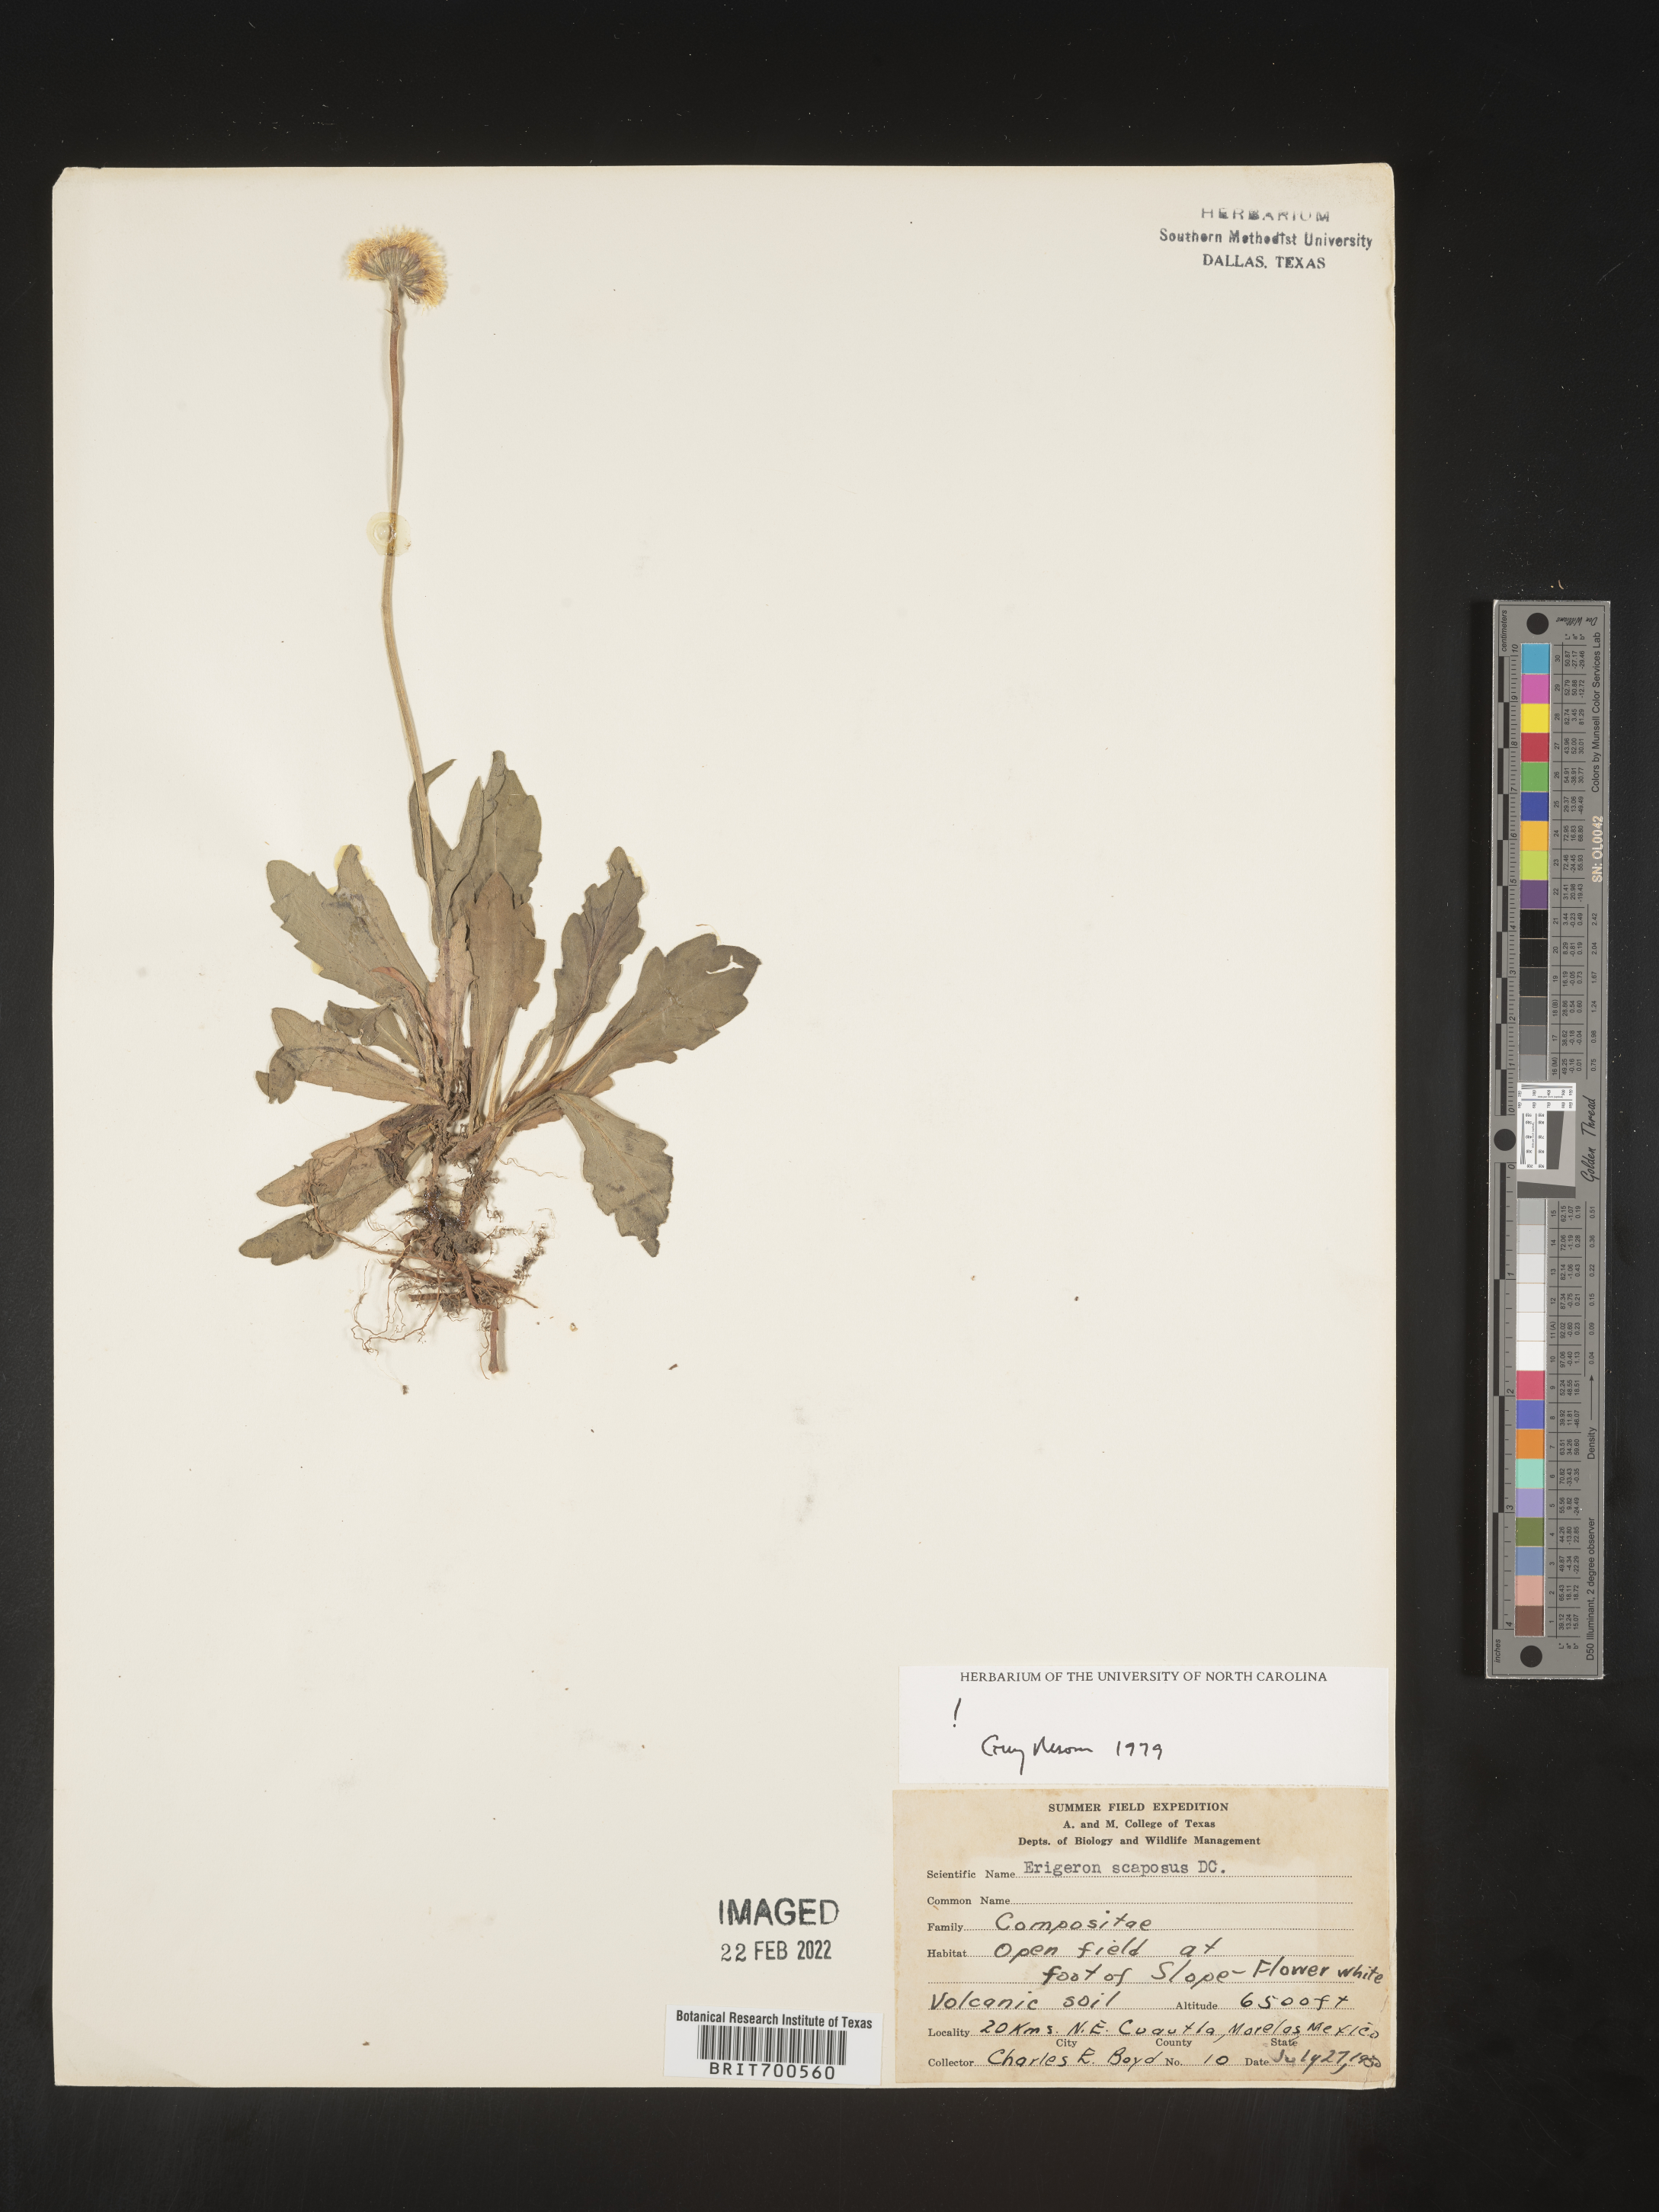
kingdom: Plantae
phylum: Tracheophyta
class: Magnoliopsida
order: Asterales
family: Asteraceae
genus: Erigeron
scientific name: Erigeron longipes
